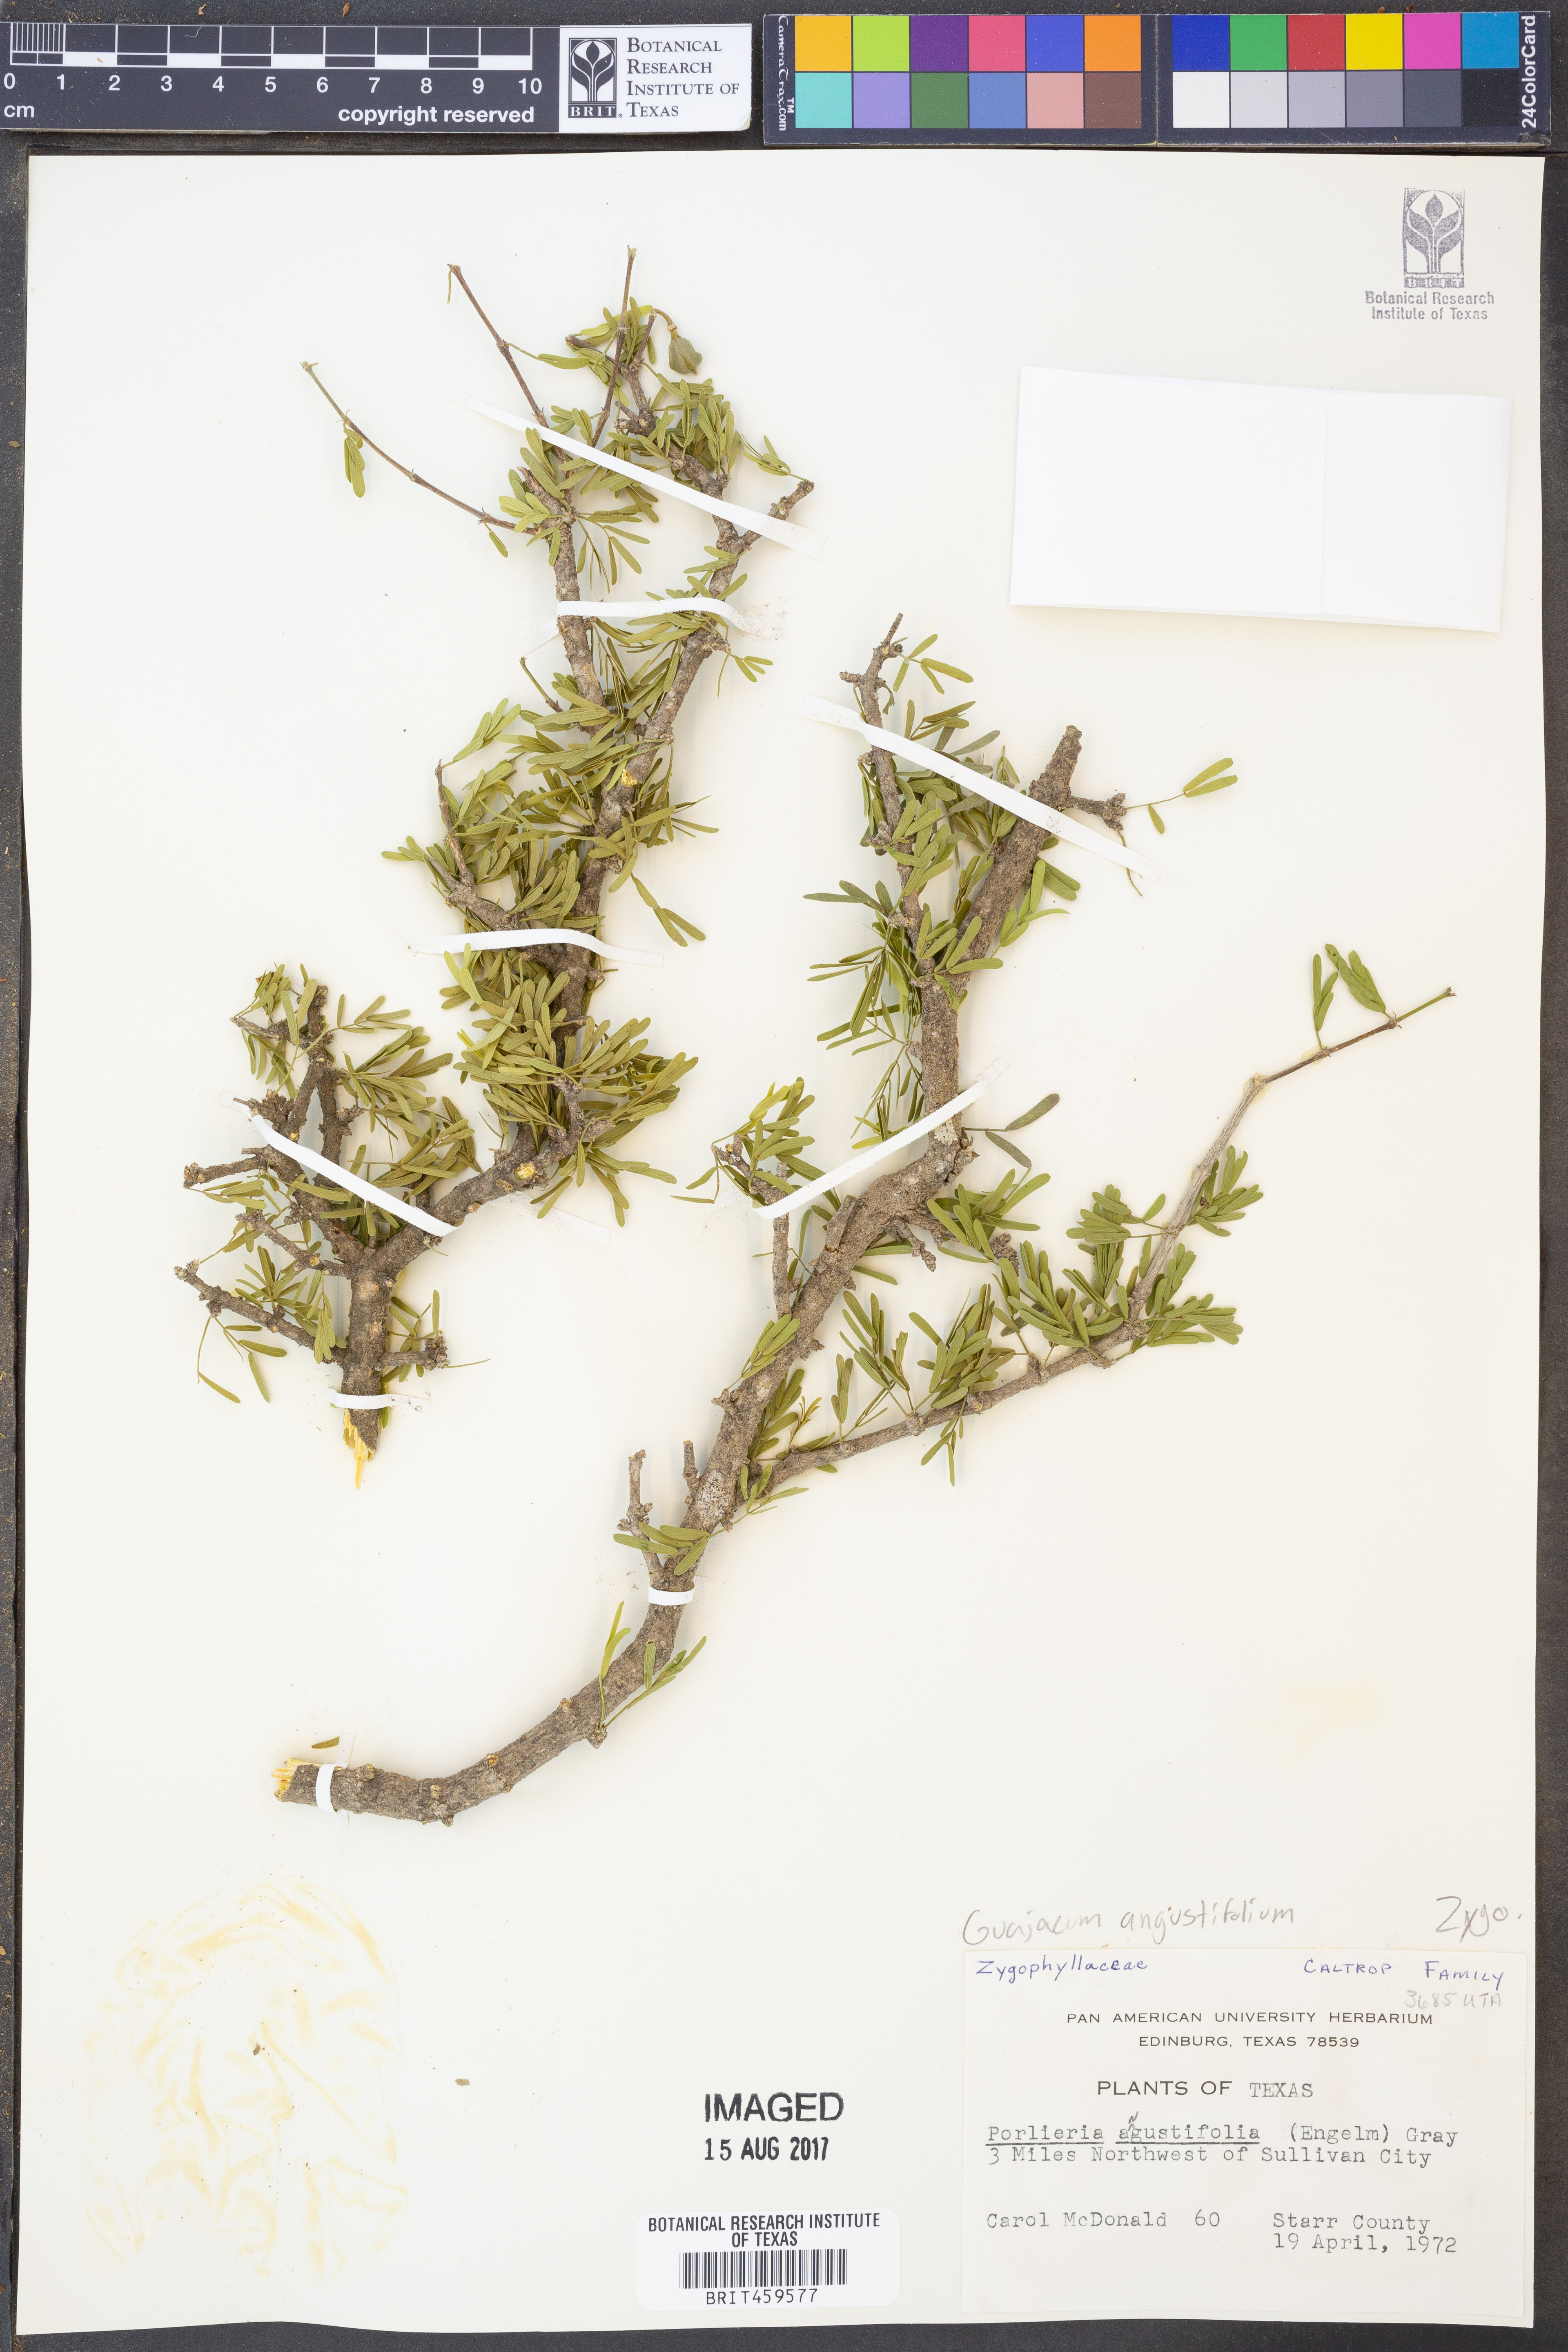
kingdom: Plantae
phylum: Tracheophyta
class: Magnoliopsida
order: Zygophyllales
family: Zygophyllaceae
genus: Porlieria
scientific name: Porlieria angustifolia
